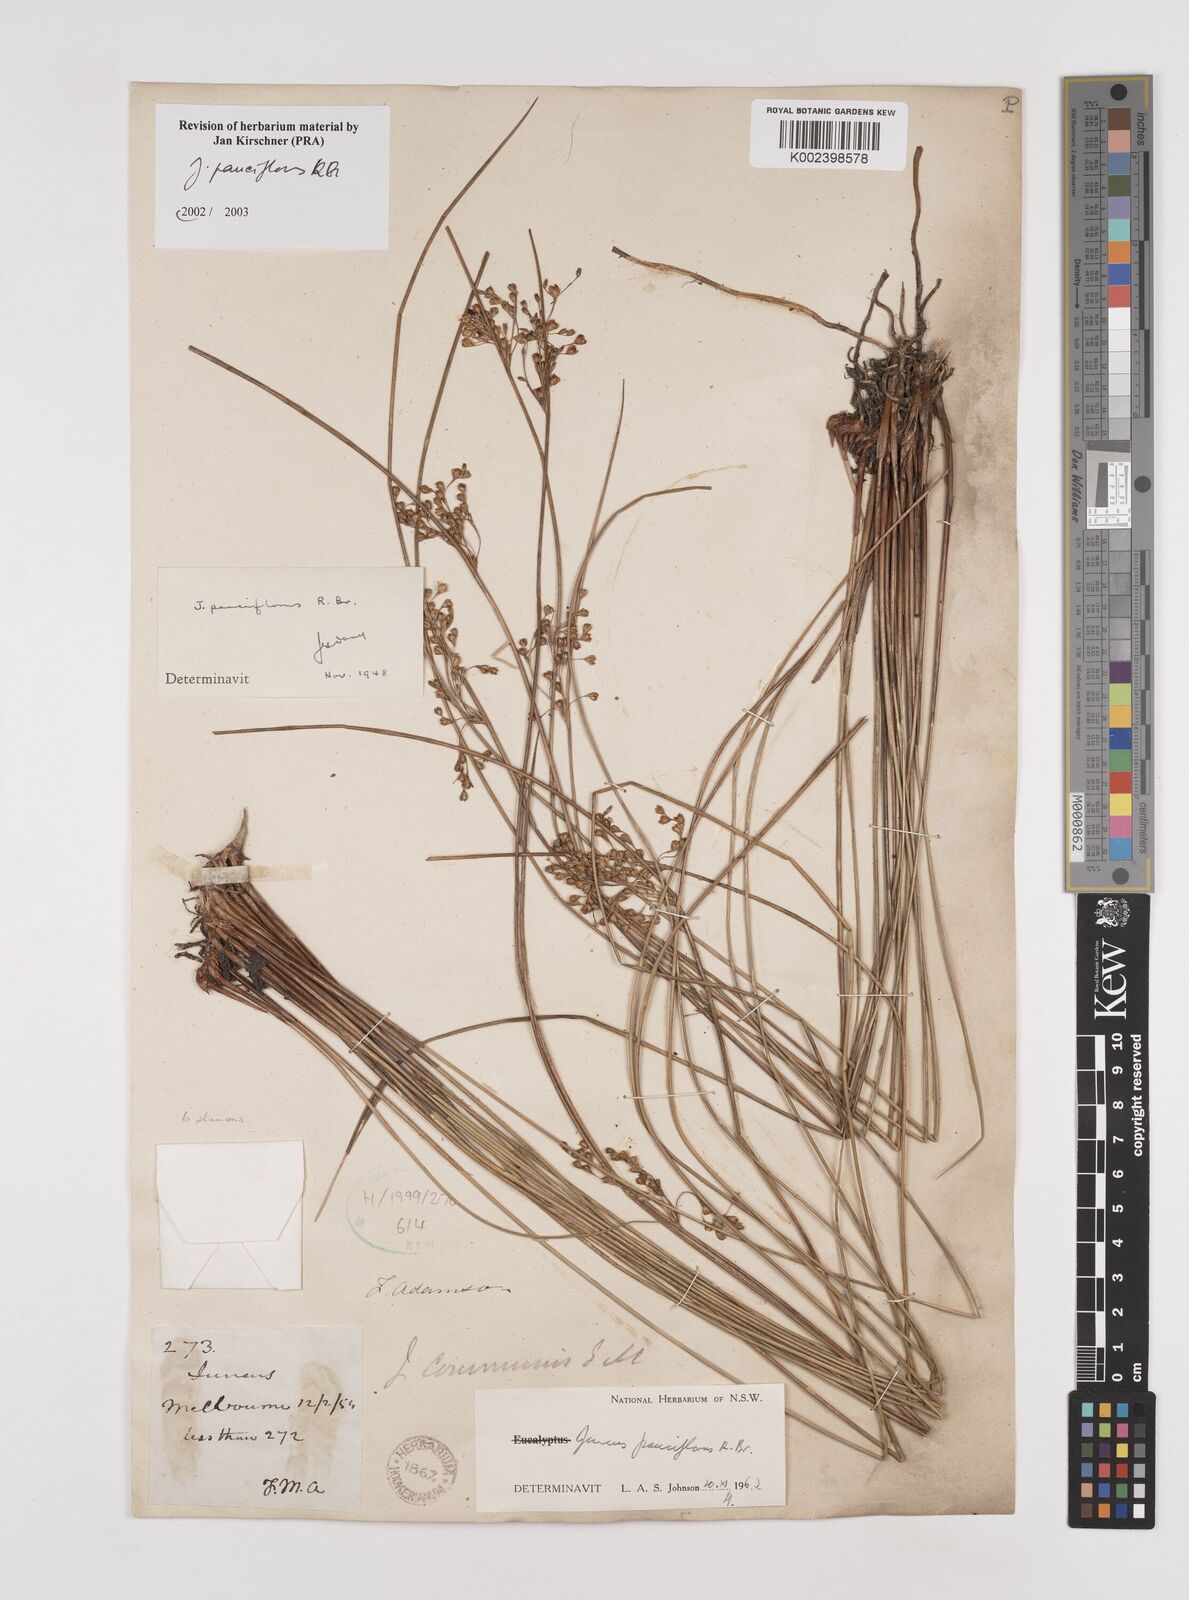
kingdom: Plantae
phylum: Tracheophyta
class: Liliopsida
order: Poales
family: Juncaceae
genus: Juncus
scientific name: Juncus pauciflorus
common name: Loose-flowered rush
